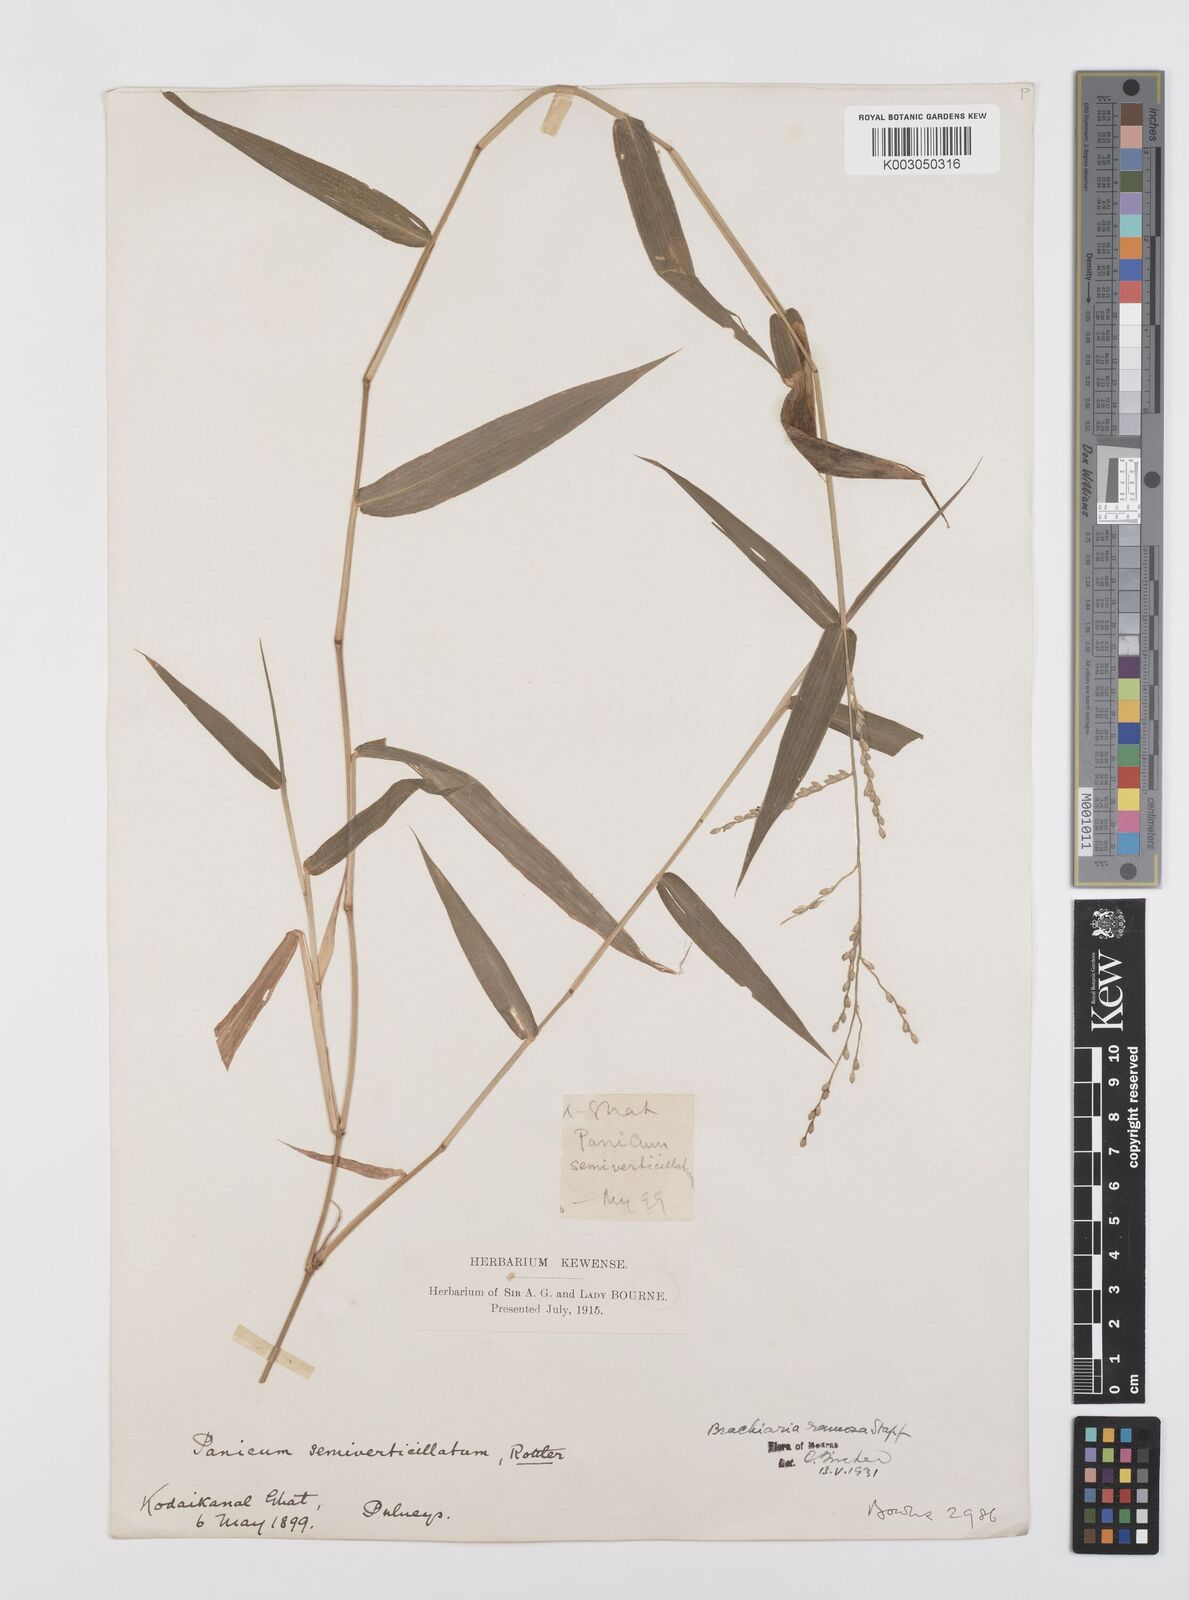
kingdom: Plantae
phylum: Tracheophyta
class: Liliopsida
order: Poales
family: Poaceae
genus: Urochloa
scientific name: Urochloa ramosa
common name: Browntop millet
